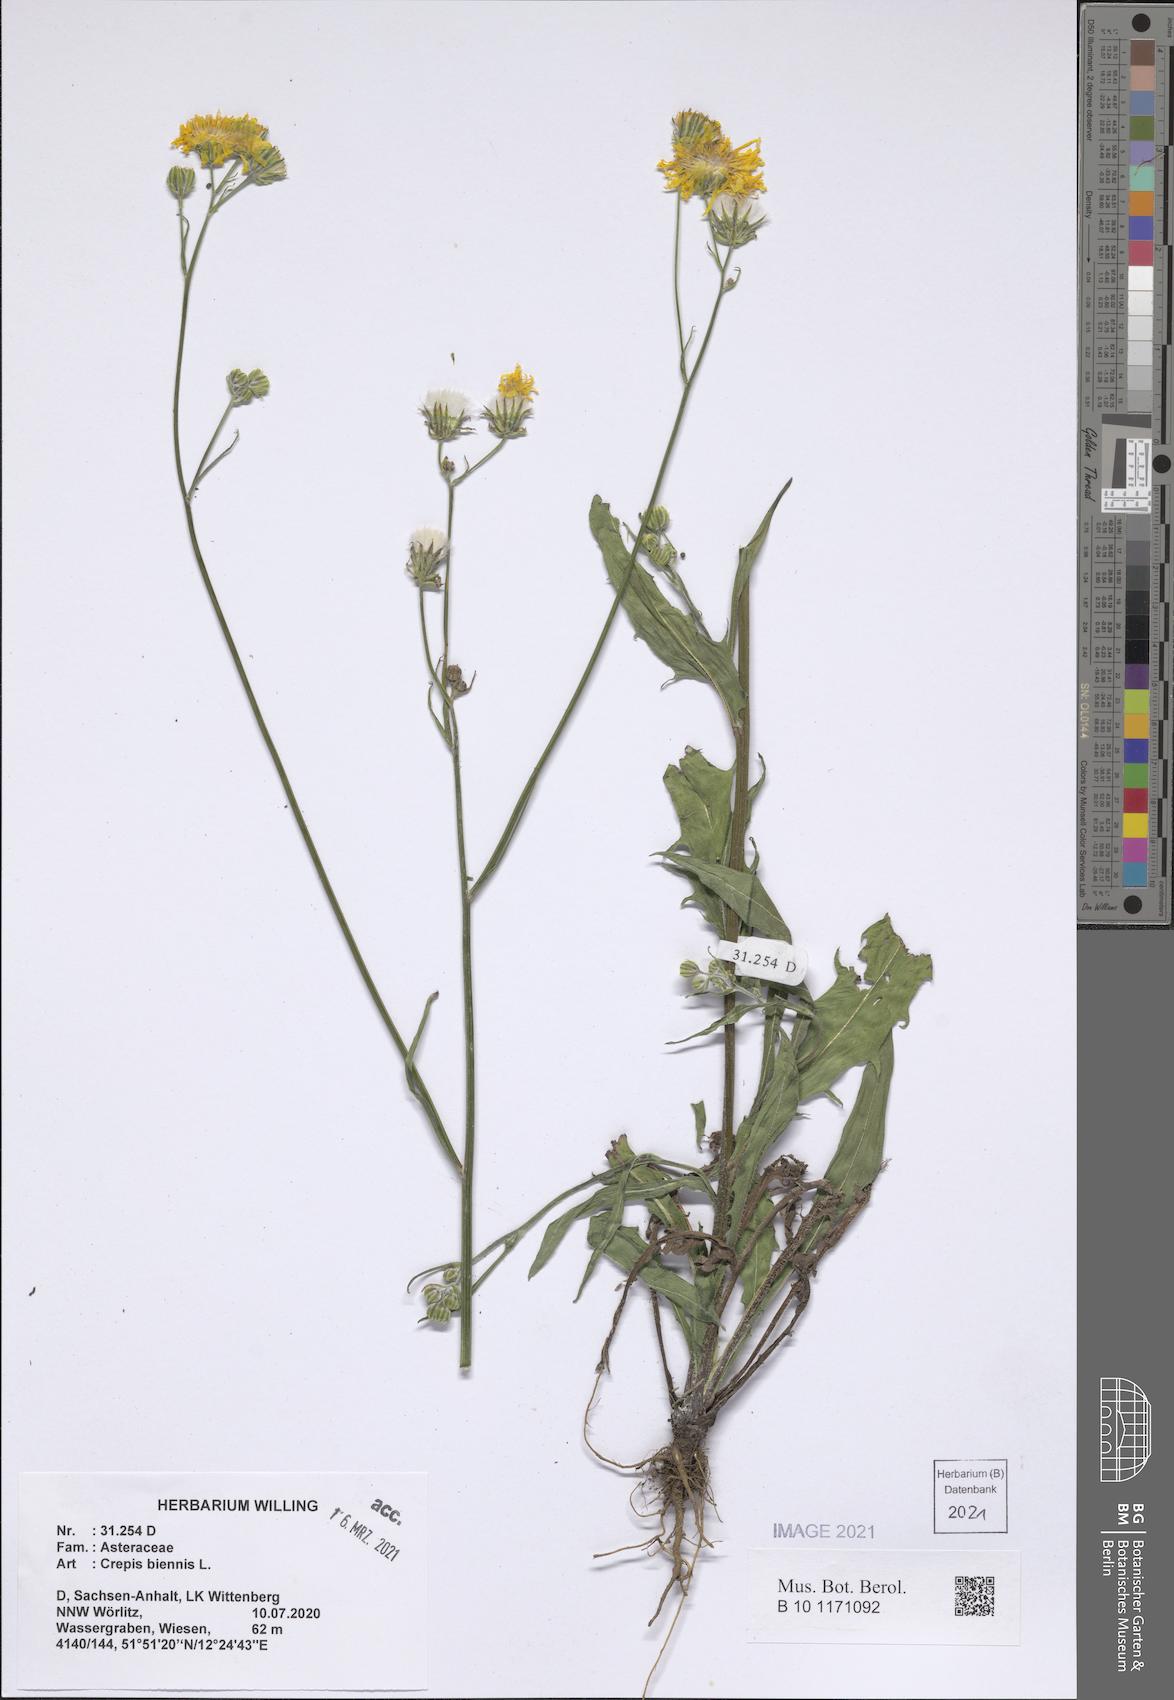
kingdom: Plantae
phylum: Tracheophyta
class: Magnoliopsida
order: Asterales
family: Asteraceae
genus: Crepis
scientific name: Crepis biennis
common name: Rough hawk's-beard
